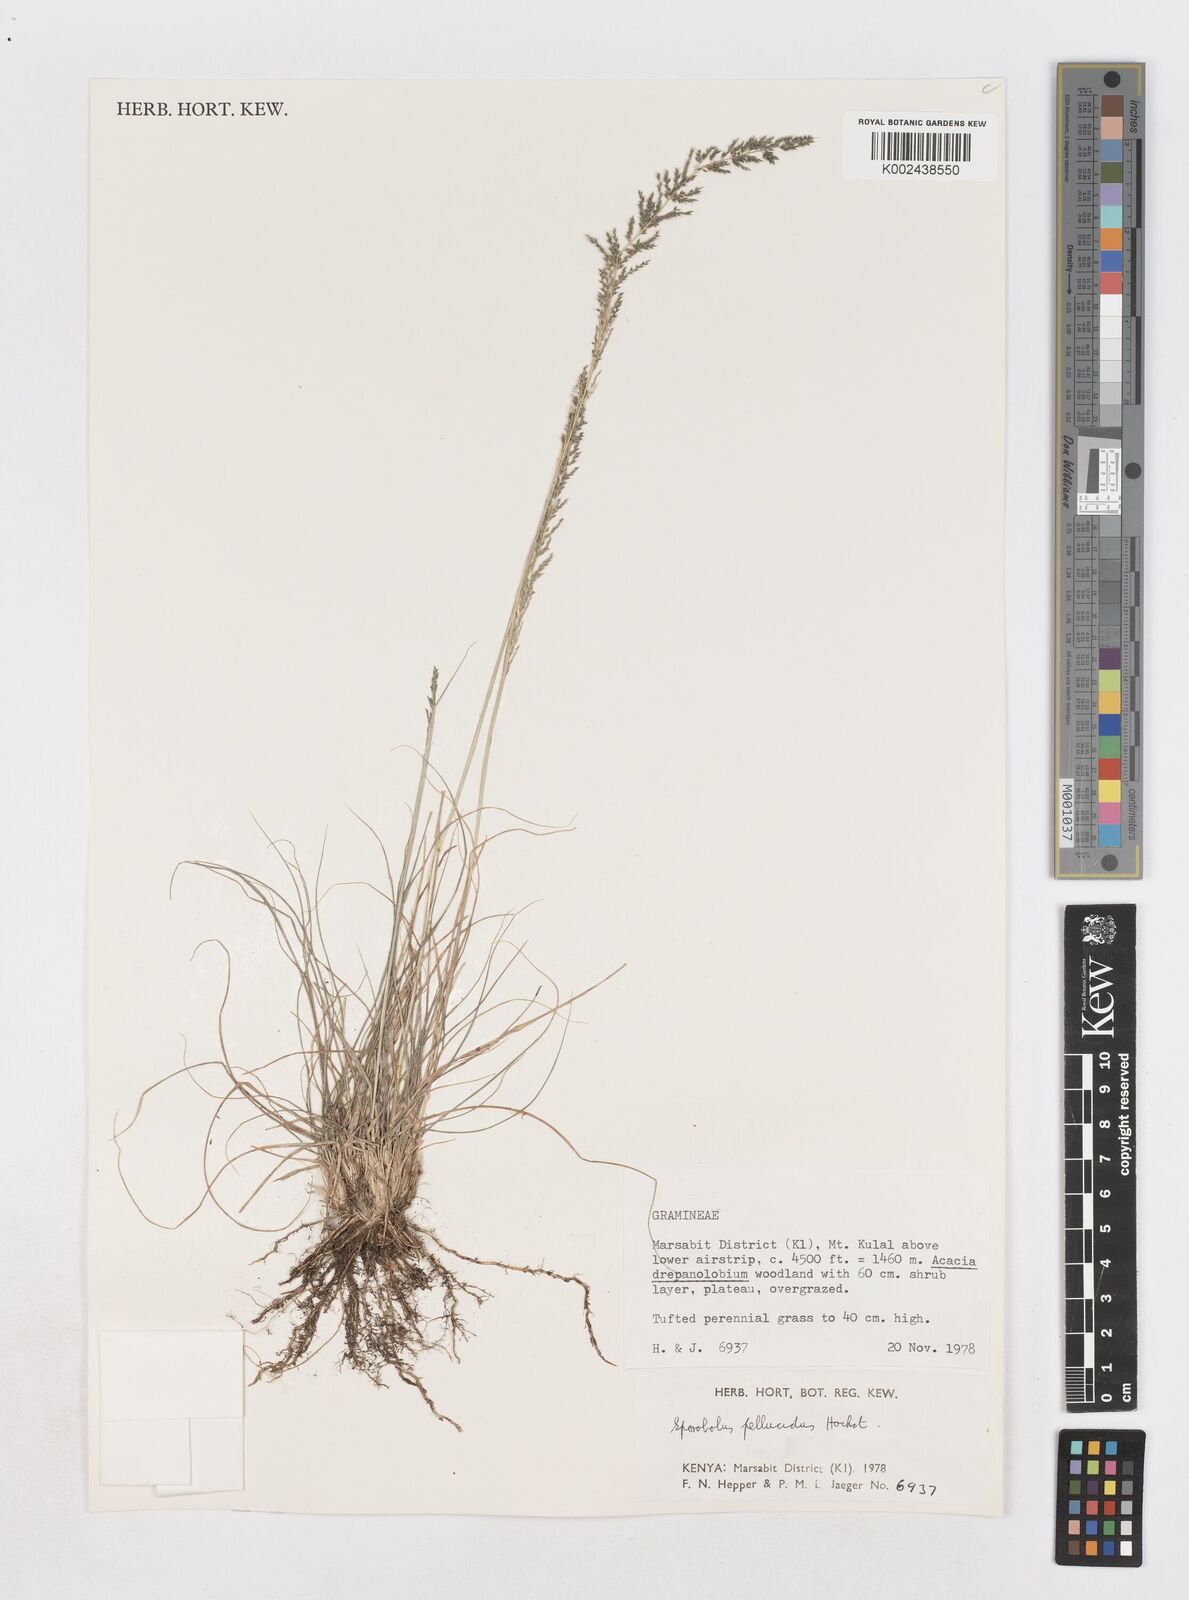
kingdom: Plantae
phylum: Tracheophyta
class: Liliopsida
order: Poales
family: Poaceae
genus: Sporobolus
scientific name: Sporobolus pellucidus
